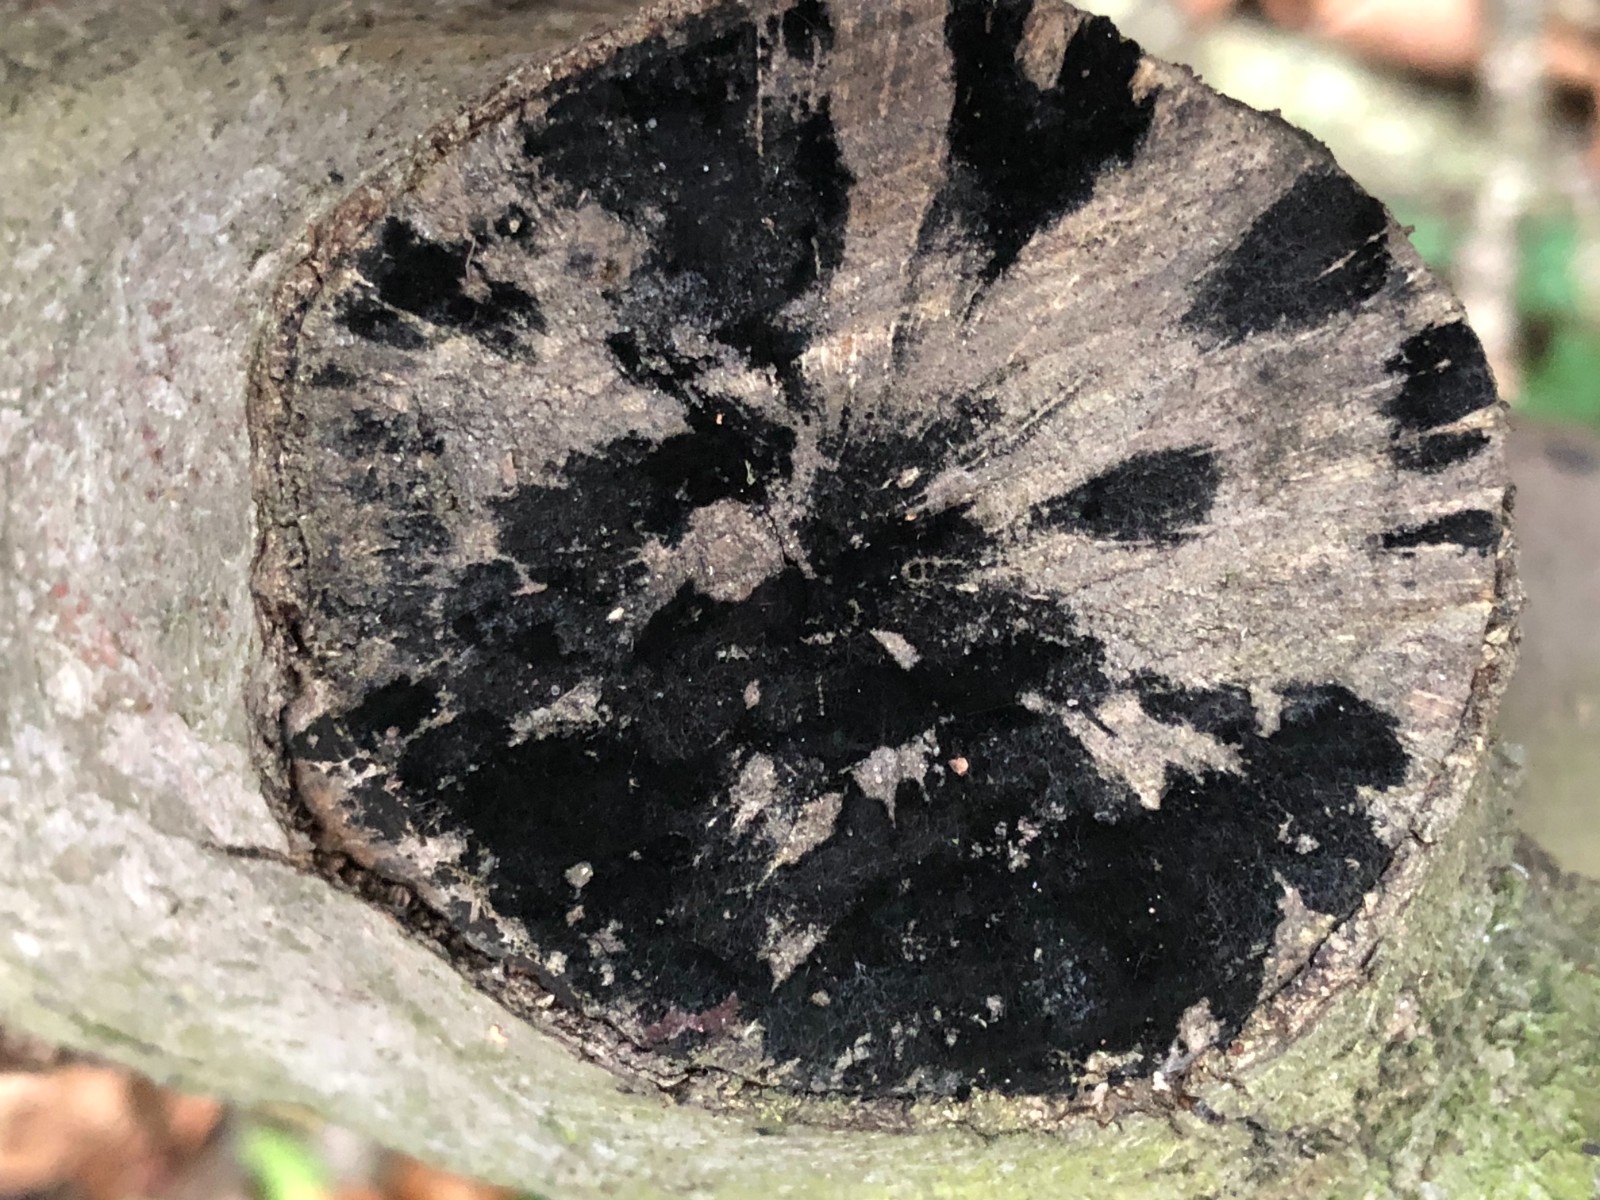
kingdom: Fungi
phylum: Ascomycota
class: Leotiomycetes
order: Helotiales
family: Helotiaceae
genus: Bispora
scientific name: Bispora pallescens
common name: måtte-snitskive
